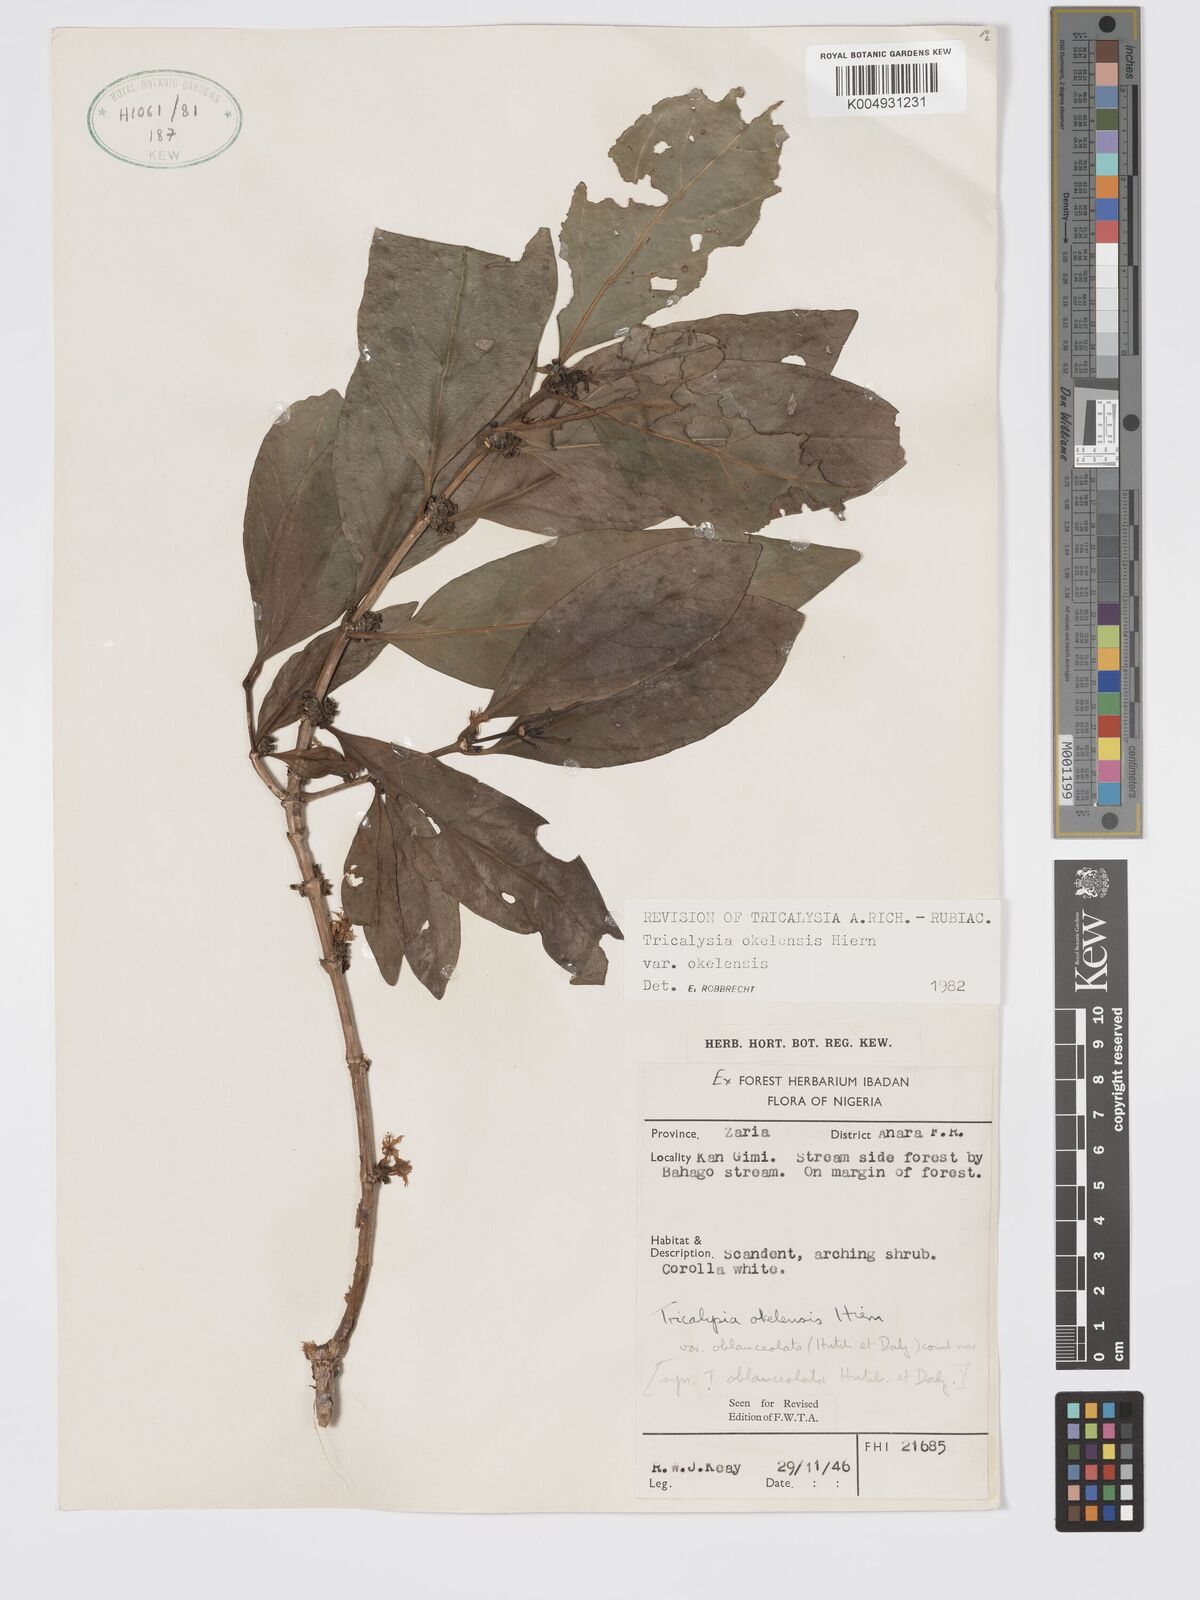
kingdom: Plantae
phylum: Tracheophyta
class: Magnoliopsida
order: Gentianales
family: Rubiaceae
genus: Tricalysia
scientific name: Tricalysia okelensis
